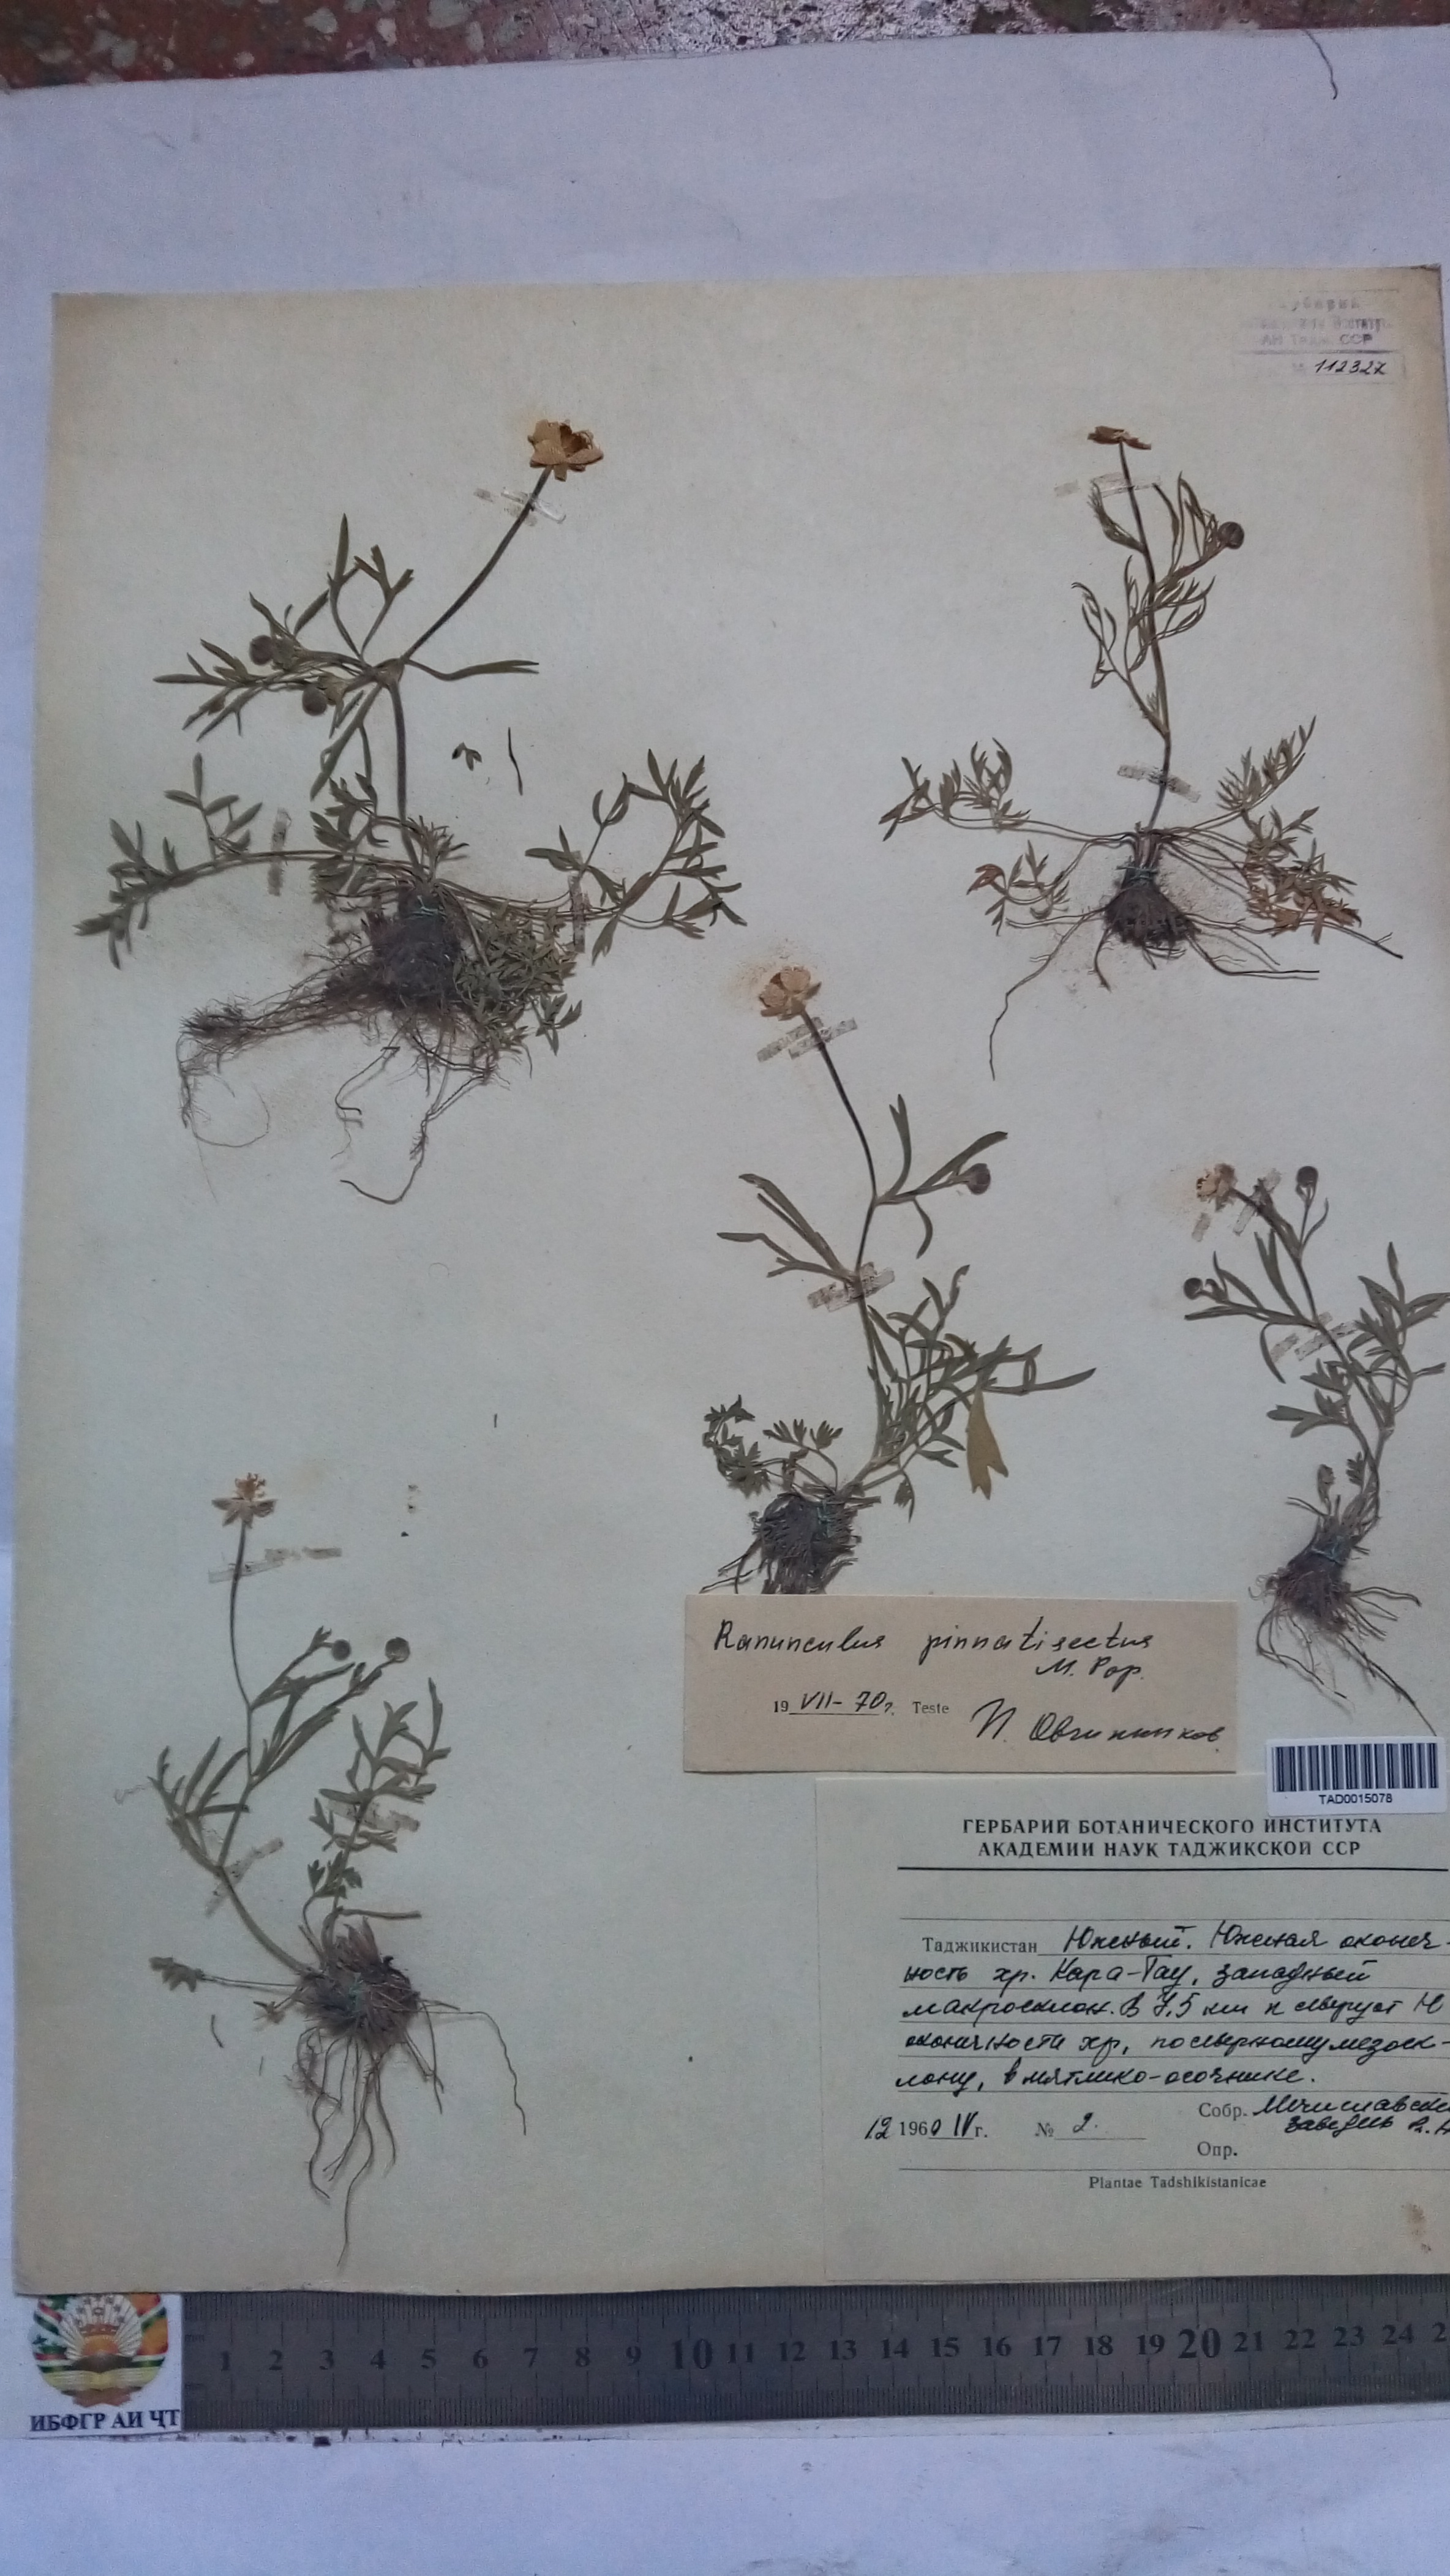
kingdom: Plantae
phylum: Tracheophyta
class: Magnoliopsida
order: Ranunculales
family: Ranunculaceae
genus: Ranunculus
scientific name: Ranunculus pinnatisectus
